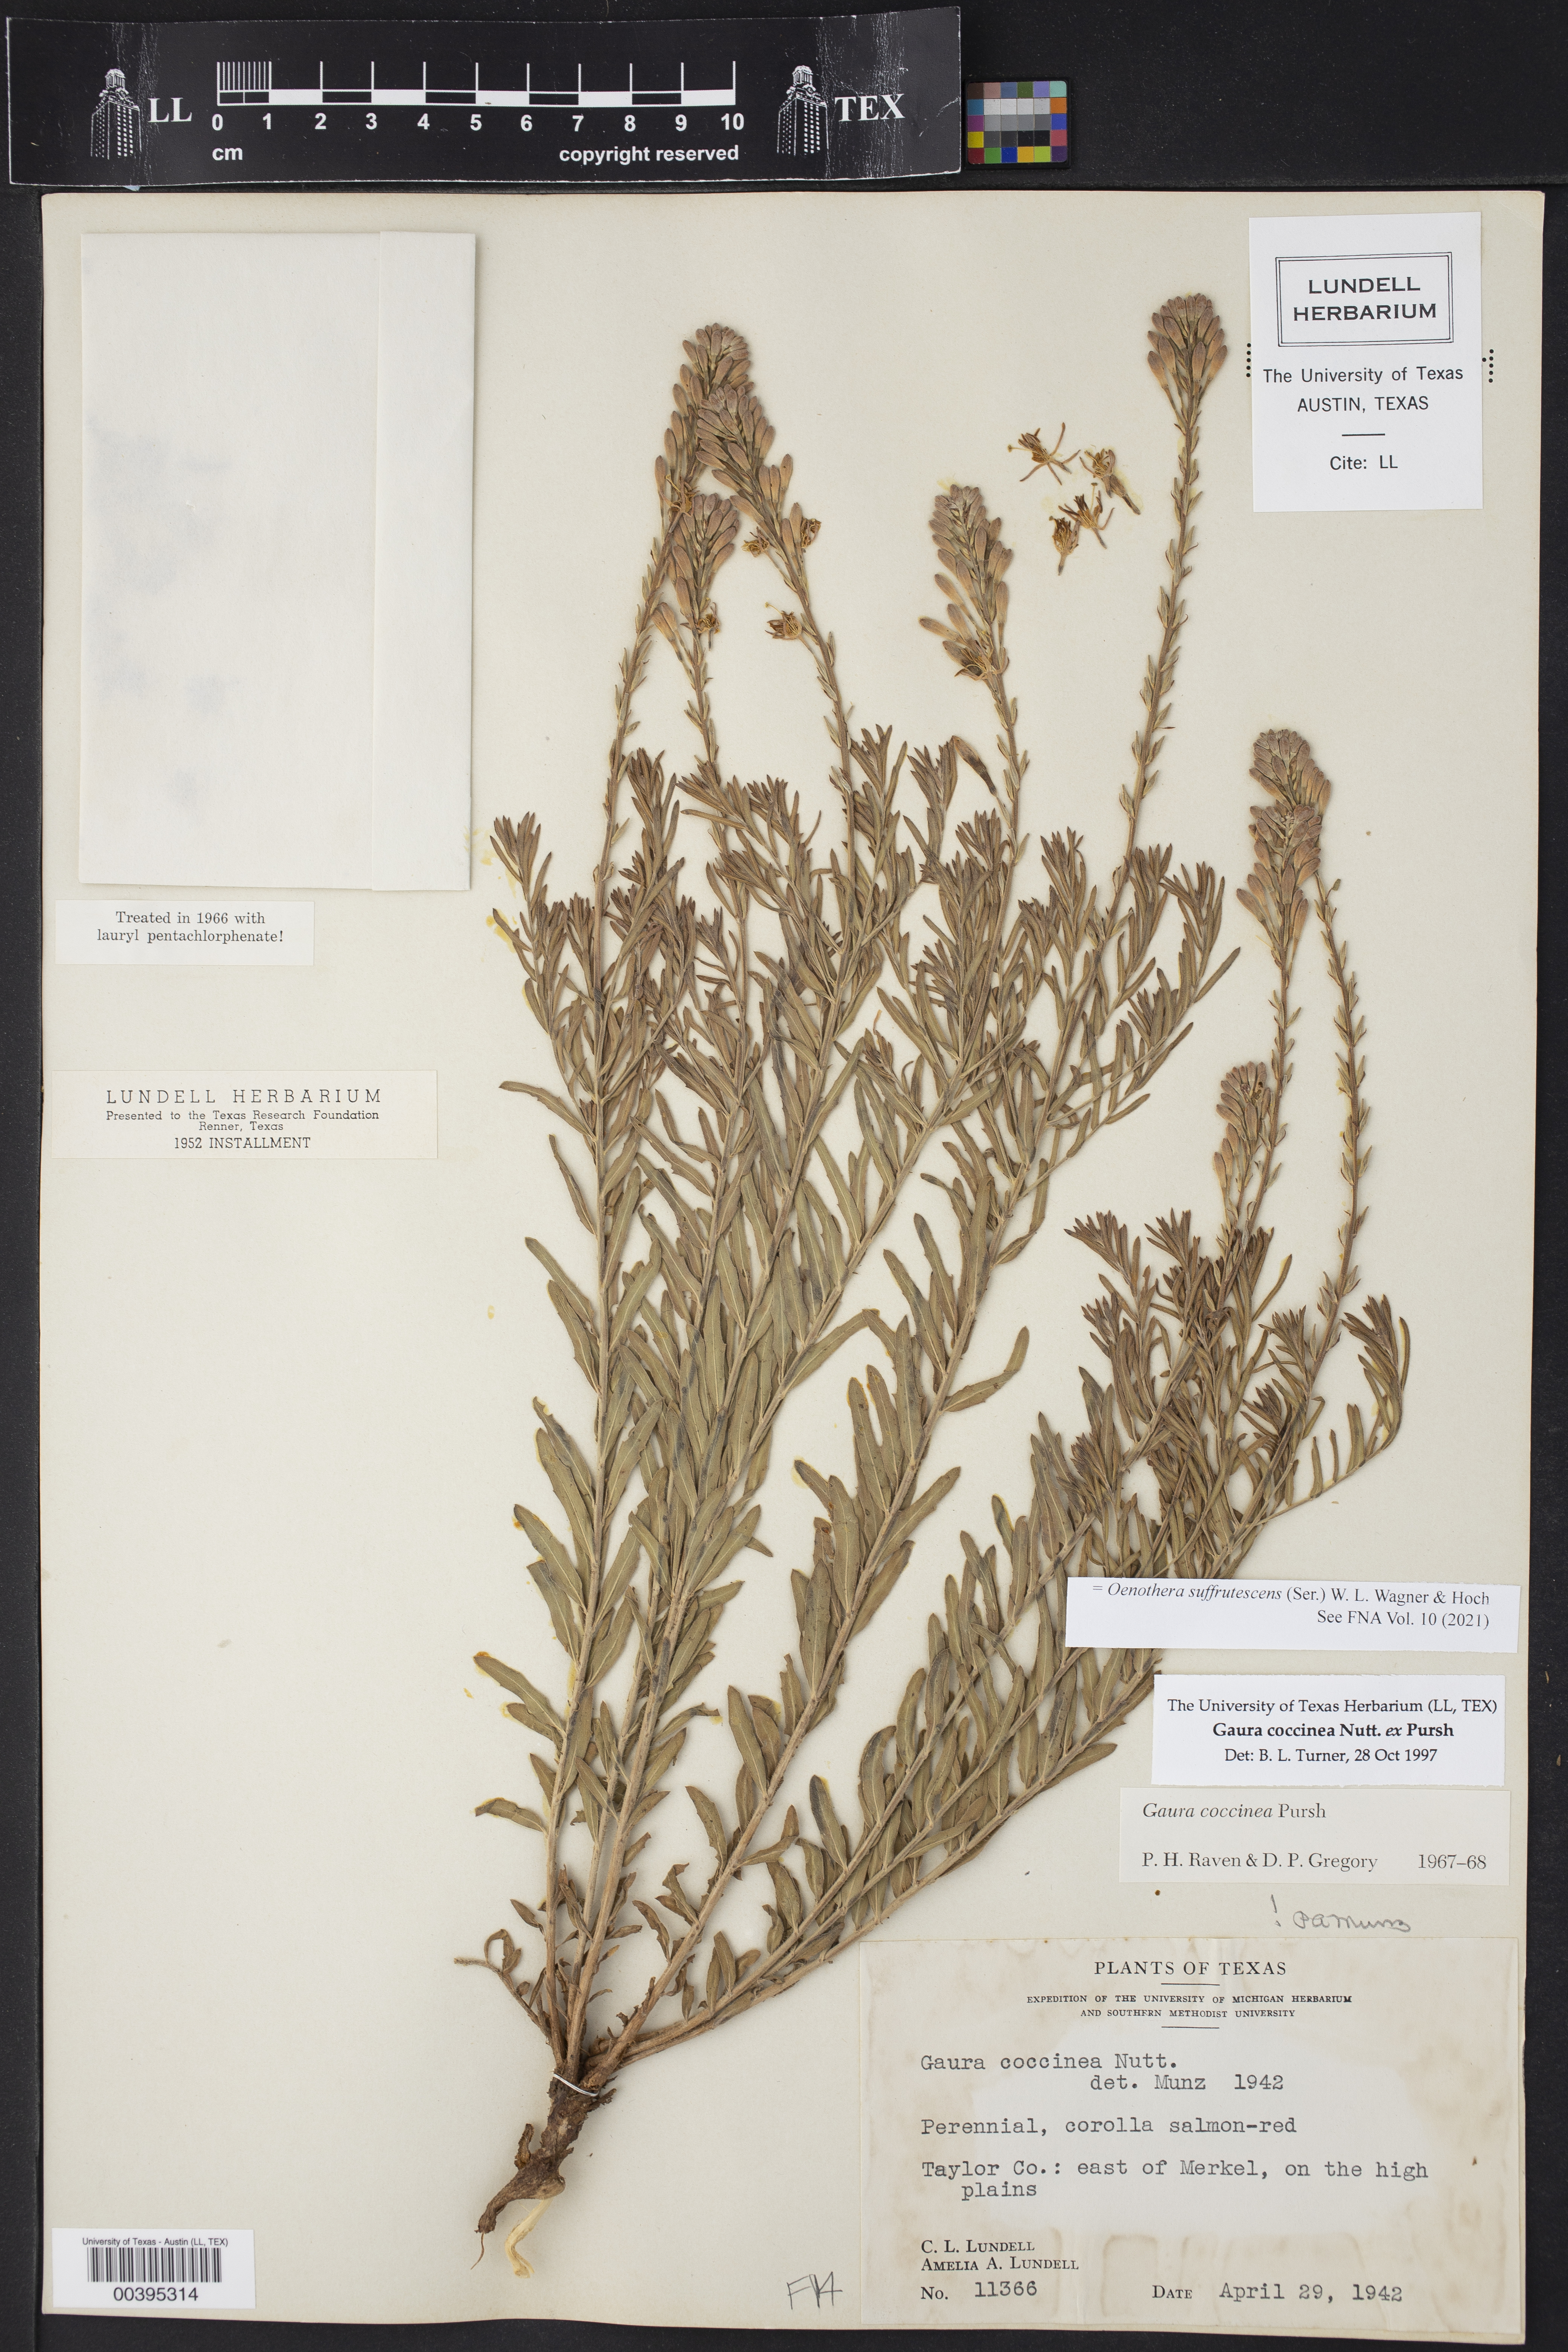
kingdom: Plantae
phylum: Tracheophyta
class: Magnoliopsida
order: Myrtales
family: Onagraceae
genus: Oenothera
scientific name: Oenothera suffrutescens
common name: Scarlet beeblossom
